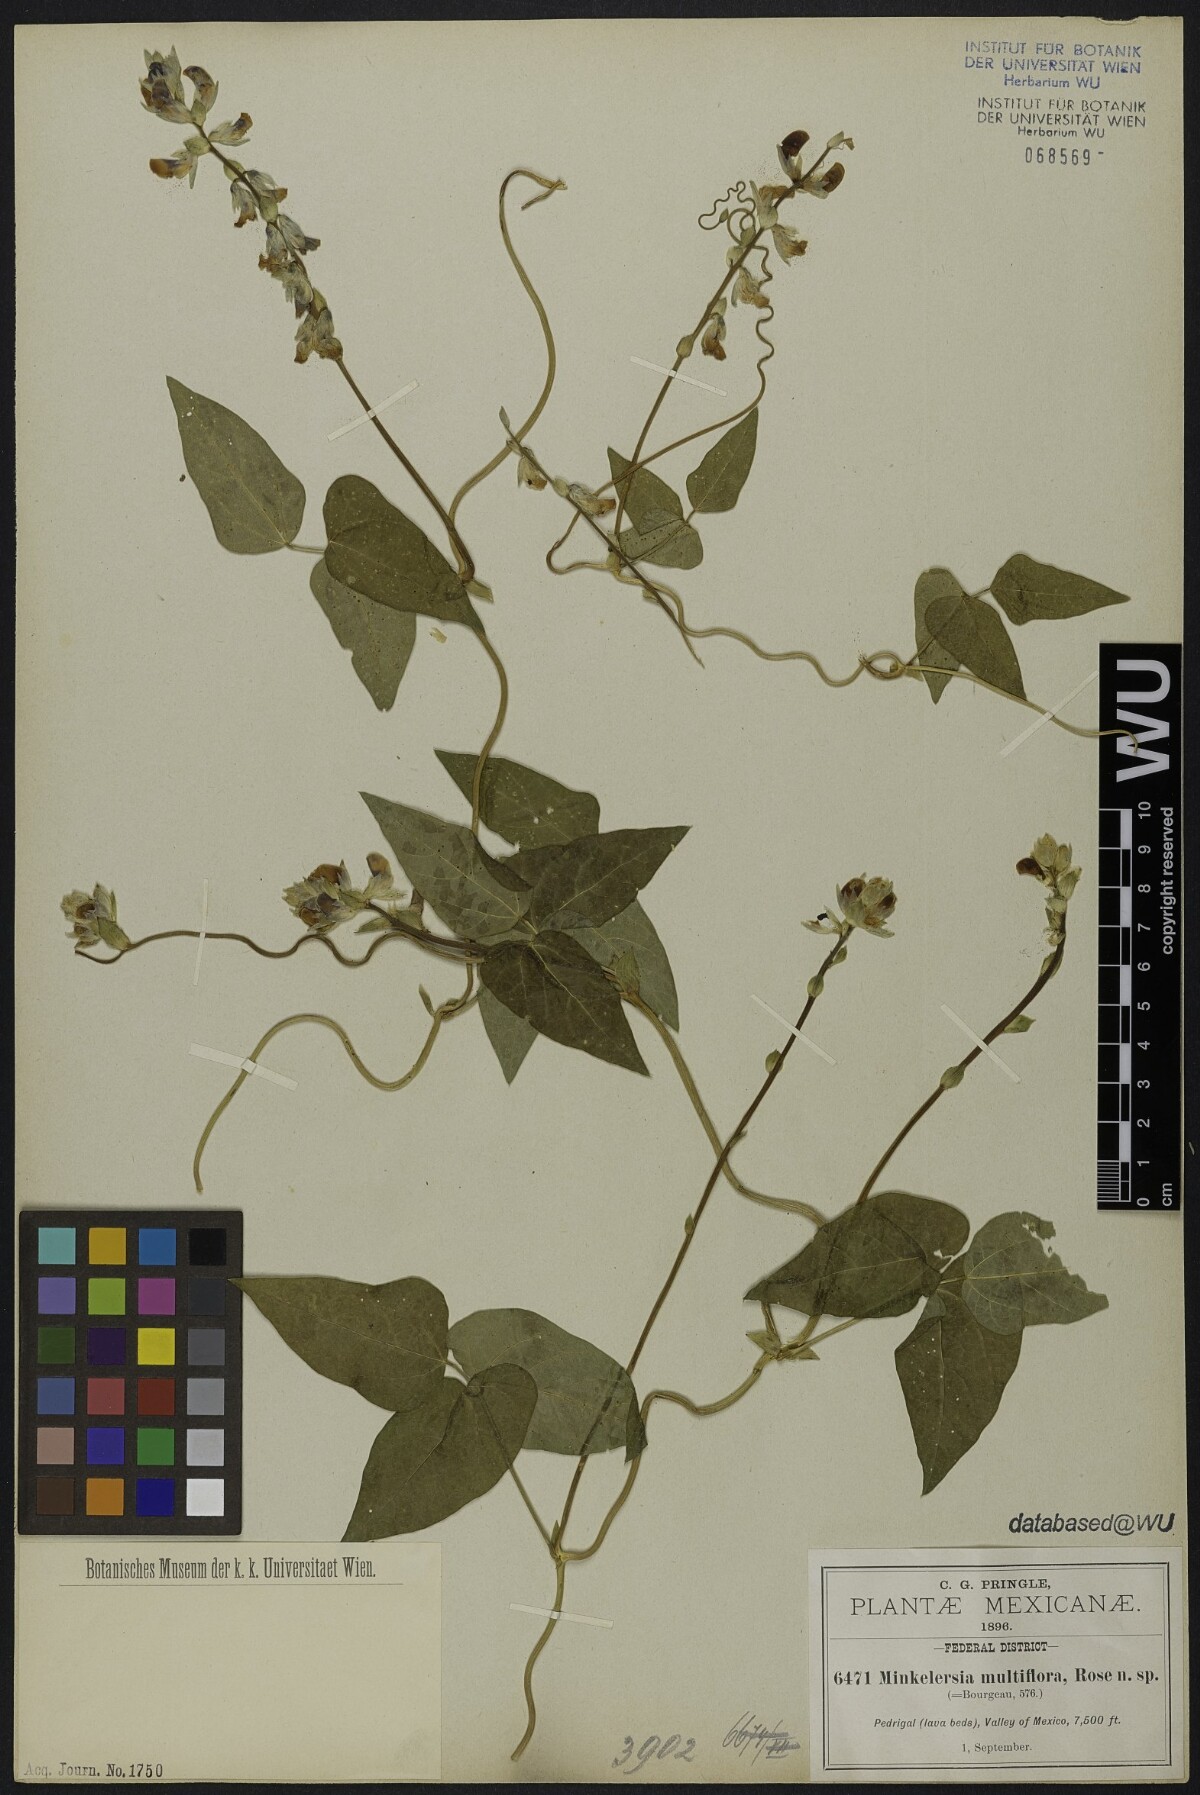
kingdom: Plantae
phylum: Tracheophyta
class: Magnoliopsida
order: Fabales
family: Fabaceae
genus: Phaseolus
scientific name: Phaseolus vulcanicus
